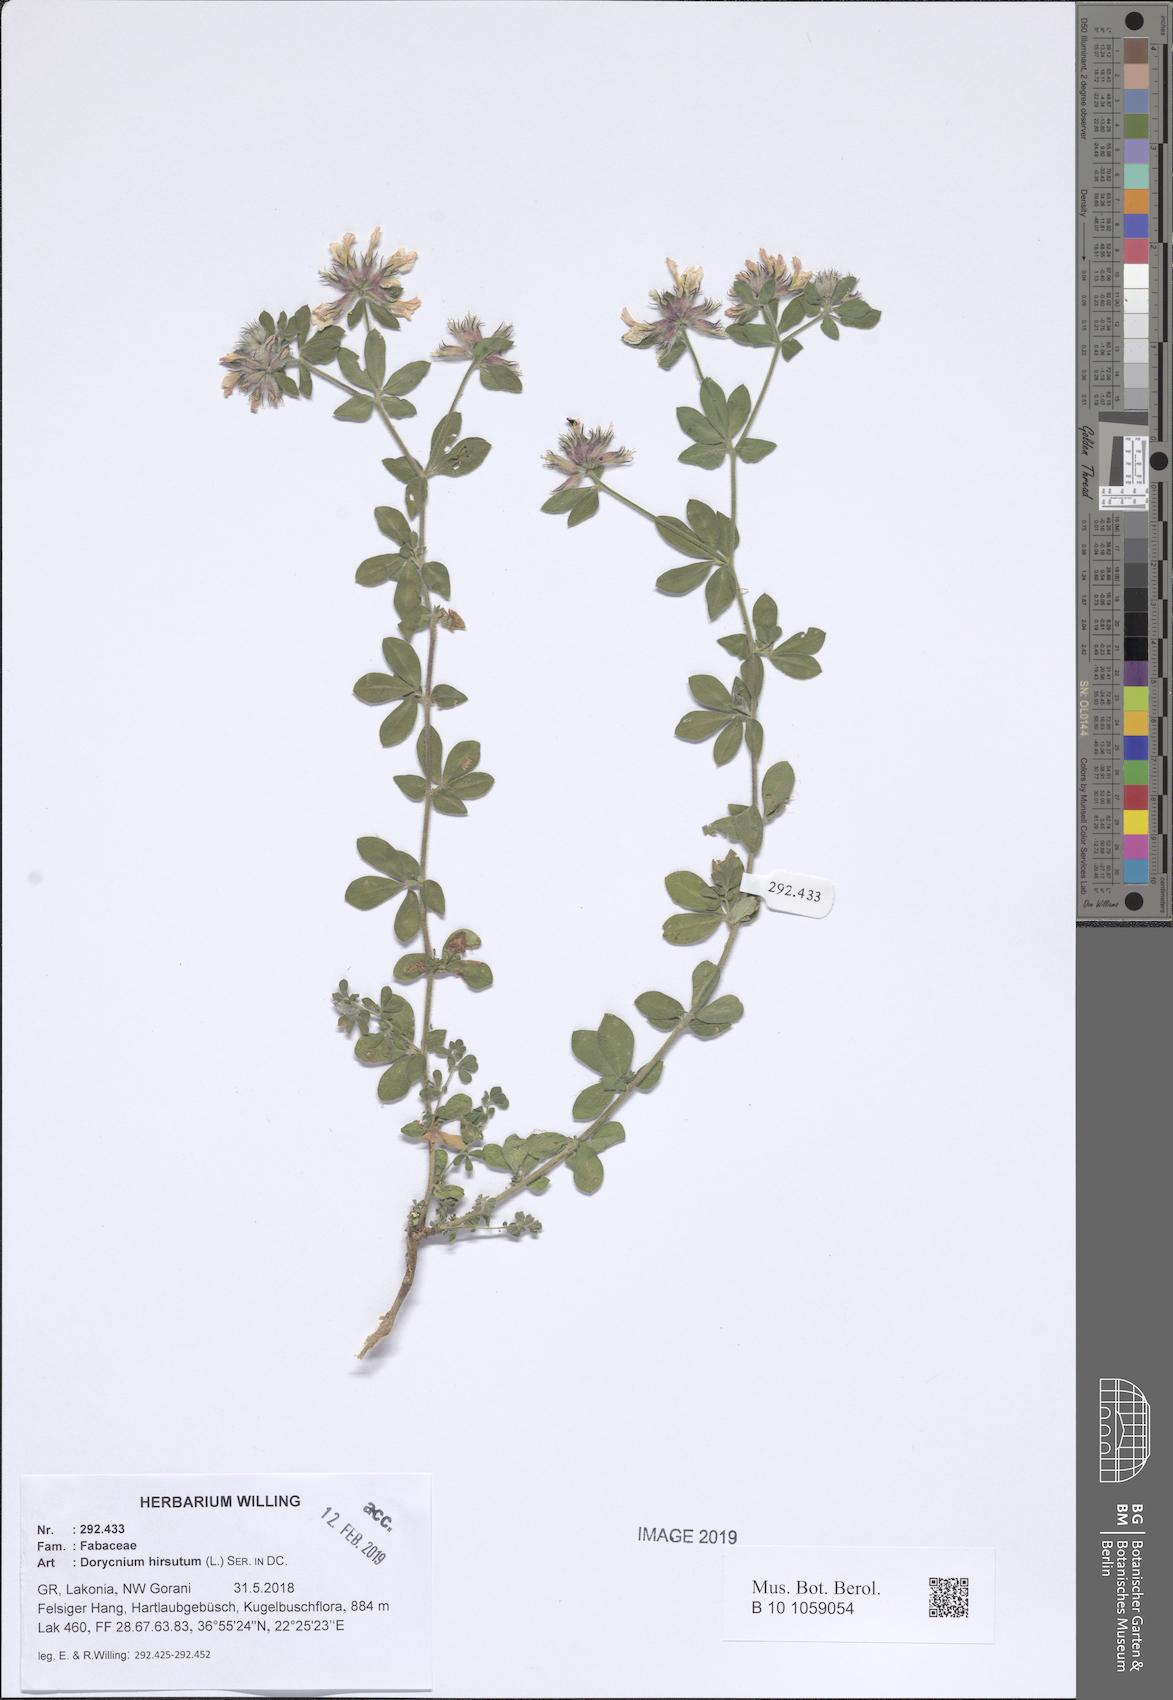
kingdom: Plantae
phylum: Tracheophyta
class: Magnoliopsida
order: Fabales
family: Fabaceae
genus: Lotus
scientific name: Lotus hirsutus
